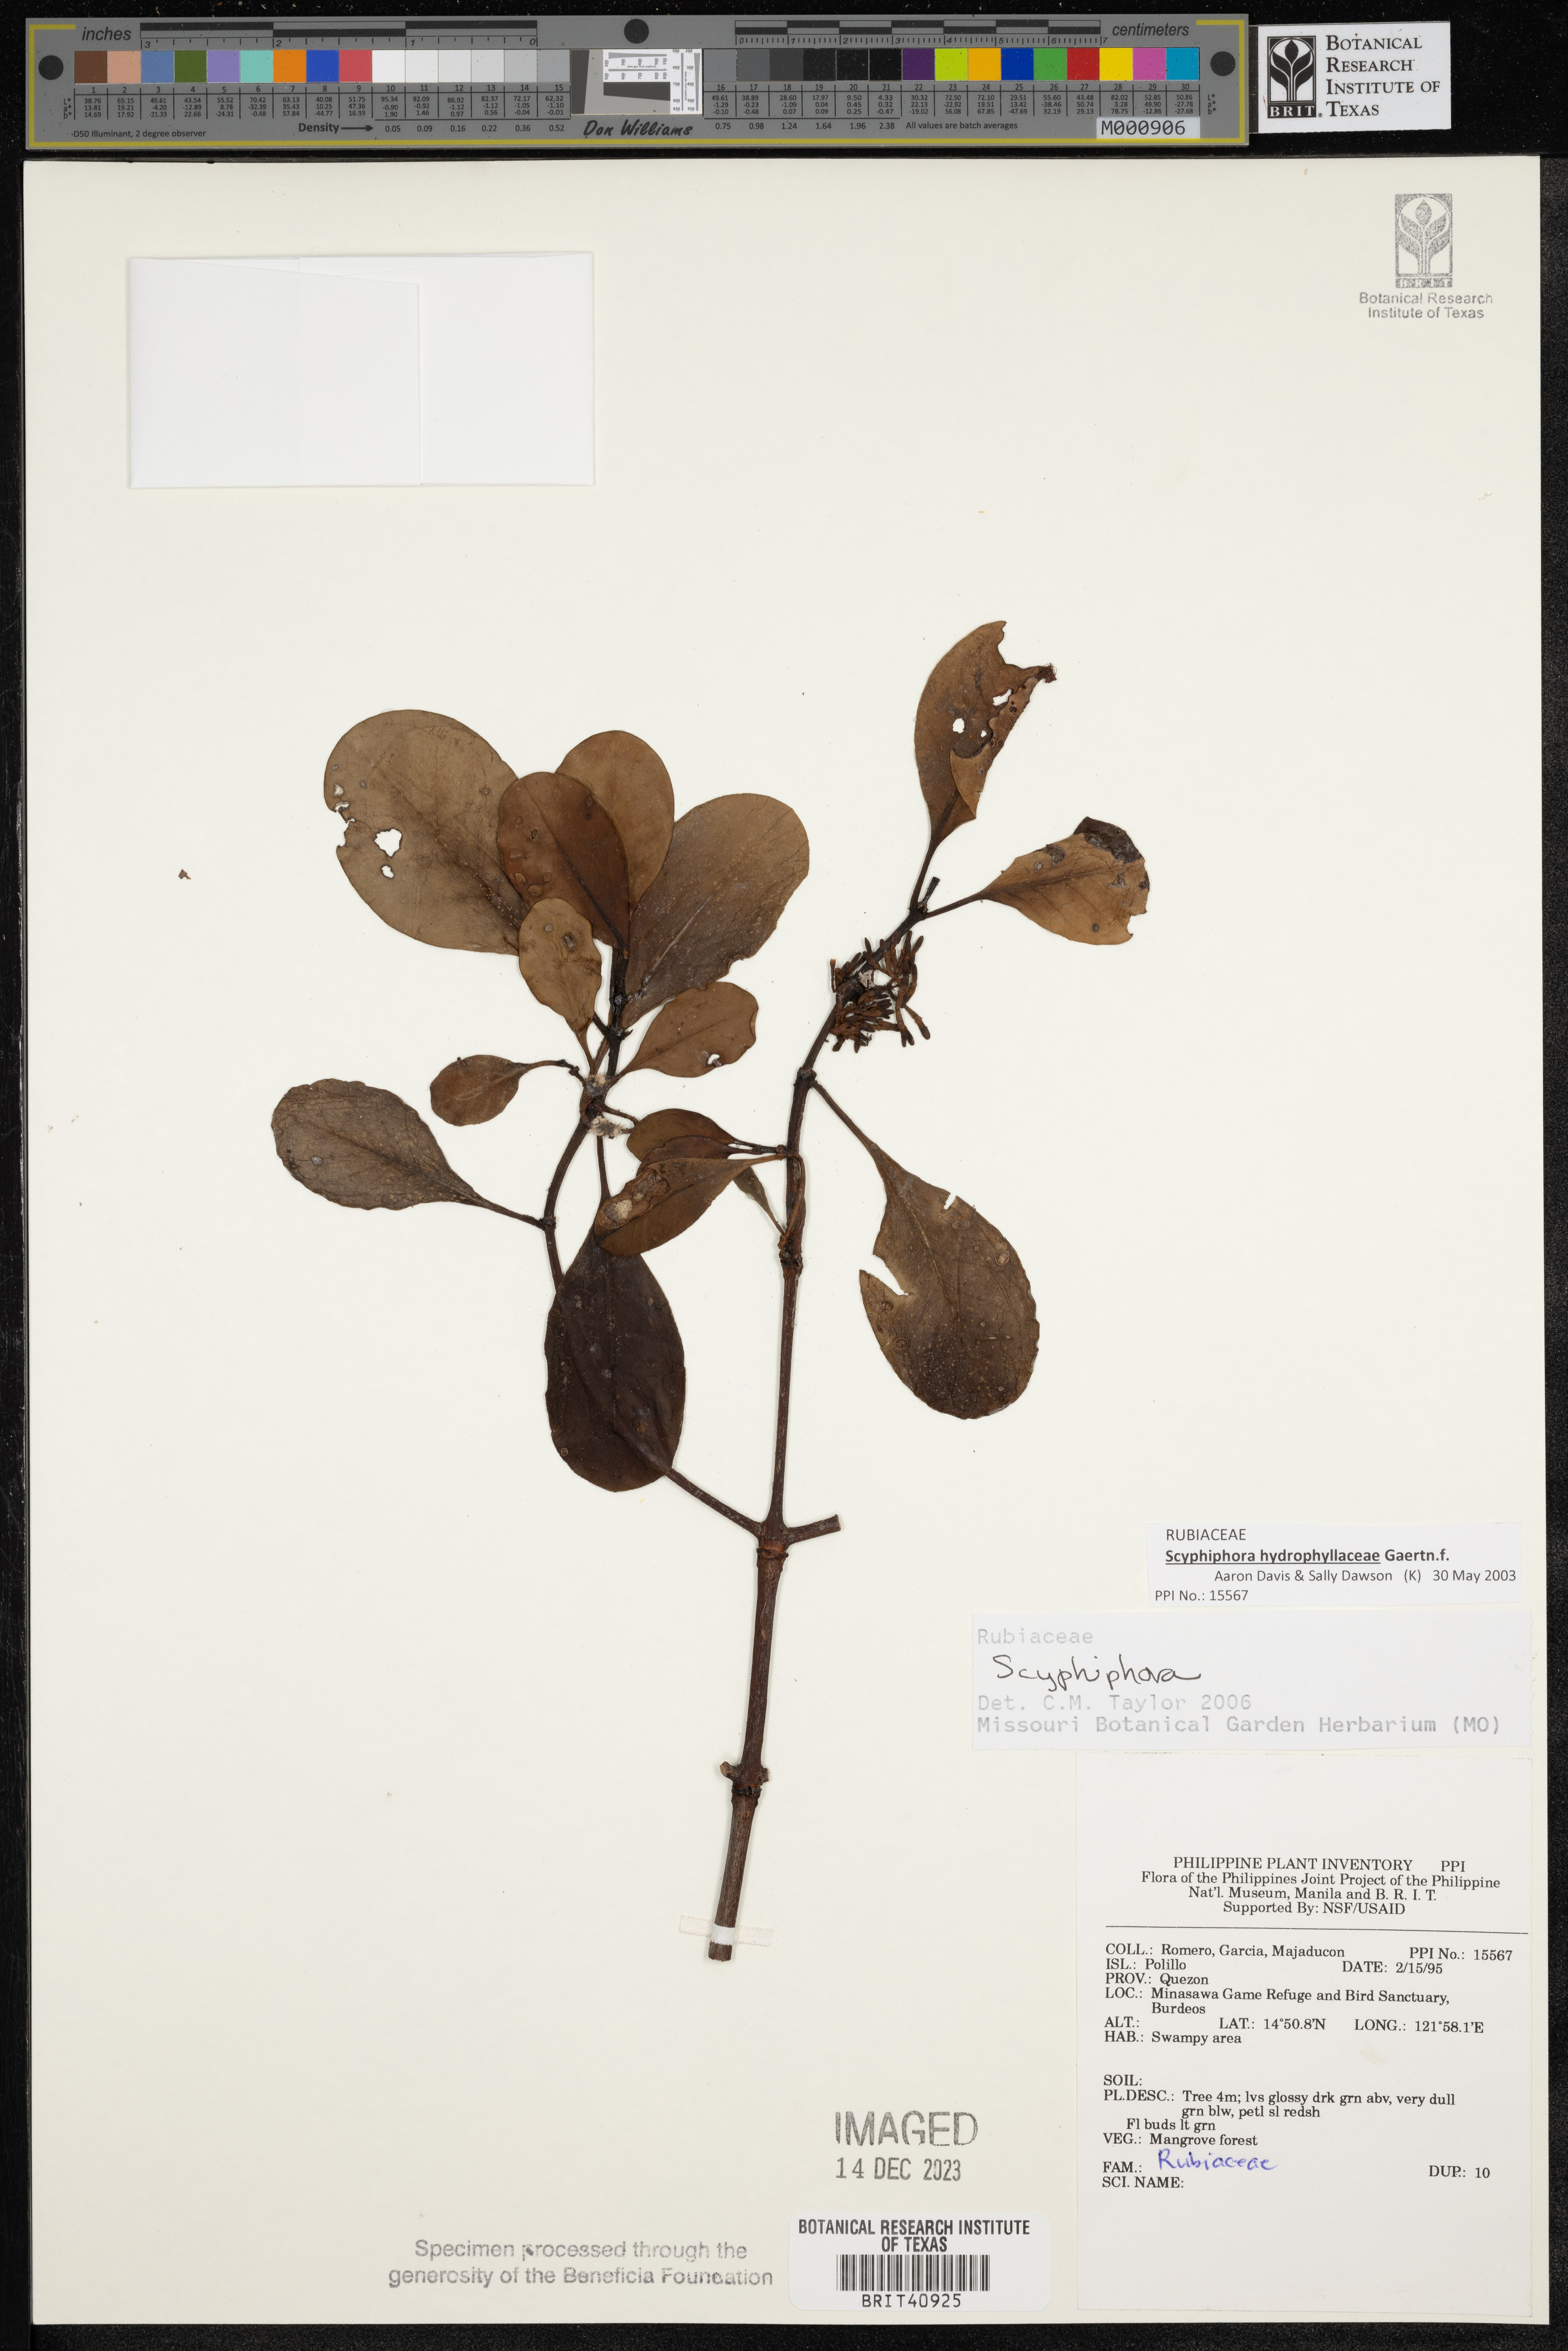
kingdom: Plantae
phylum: Tracheophyta
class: Magnoliopsida
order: Gentianales
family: Rubiaceae
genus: Scyphiphora
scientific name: Scyphiphora
